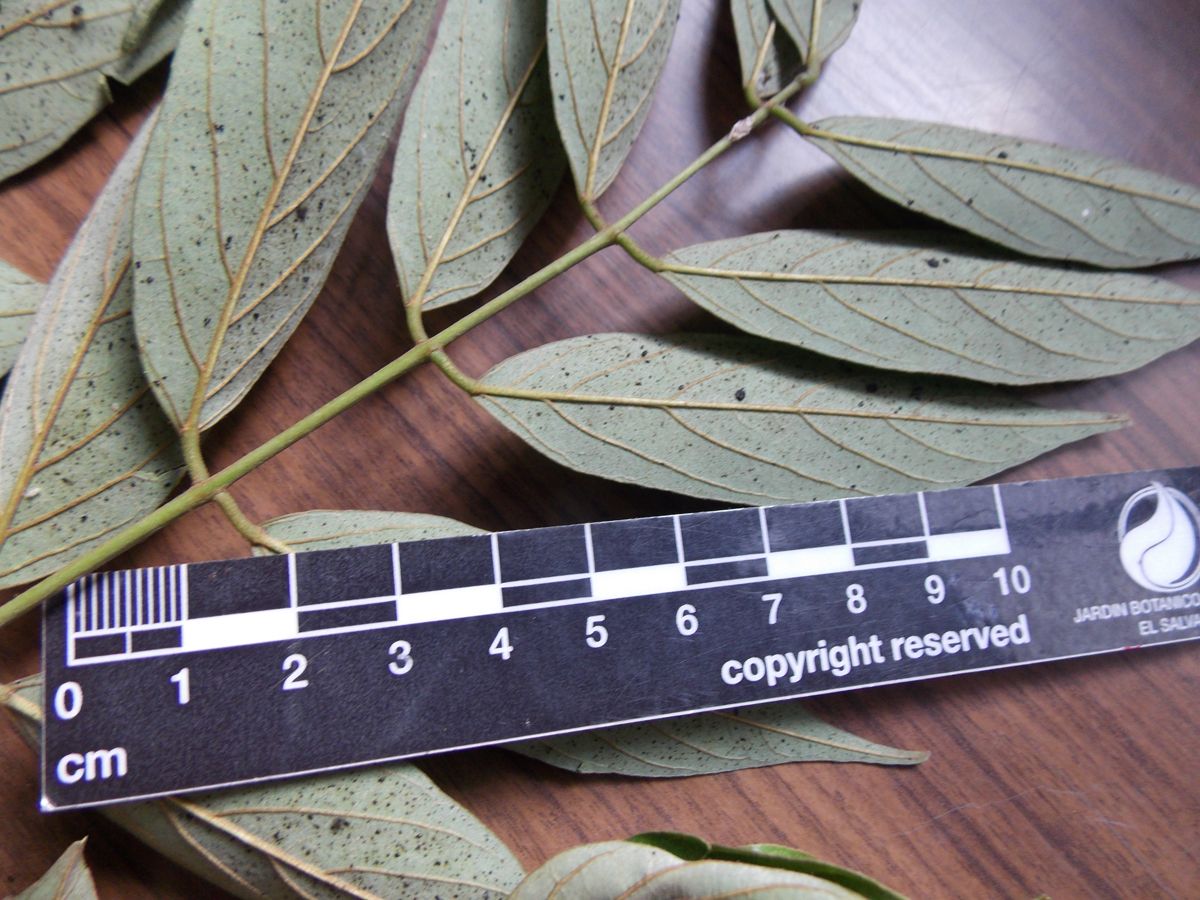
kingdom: Plantae
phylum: Tracheophyta
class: Magnoliopsida
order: Fabales
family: Fabaceae
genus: Lonchocarpus
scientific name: Lonchocarpus santarosanus
